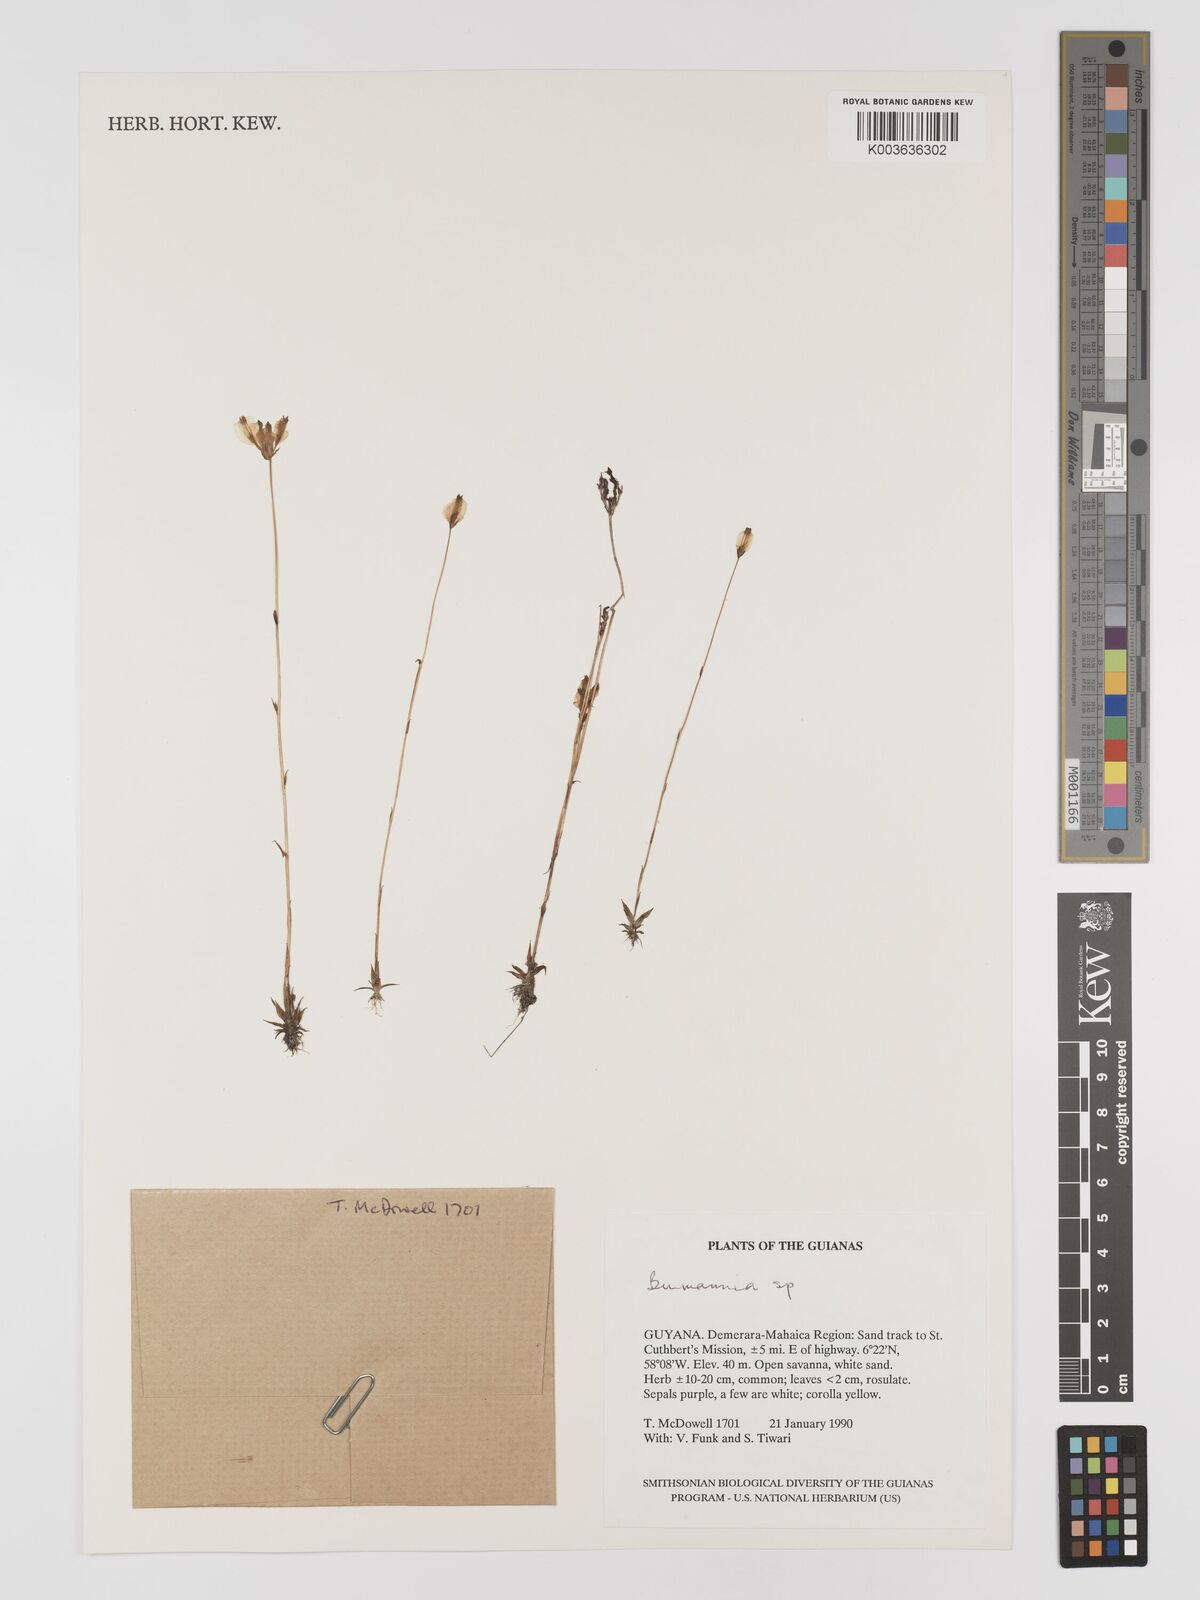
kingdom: Plantae
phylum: Tracheophyta
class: Liliopsida
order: Dioscoreales
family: Burmanniaceae
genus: Burmannia
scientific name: Burmannia
